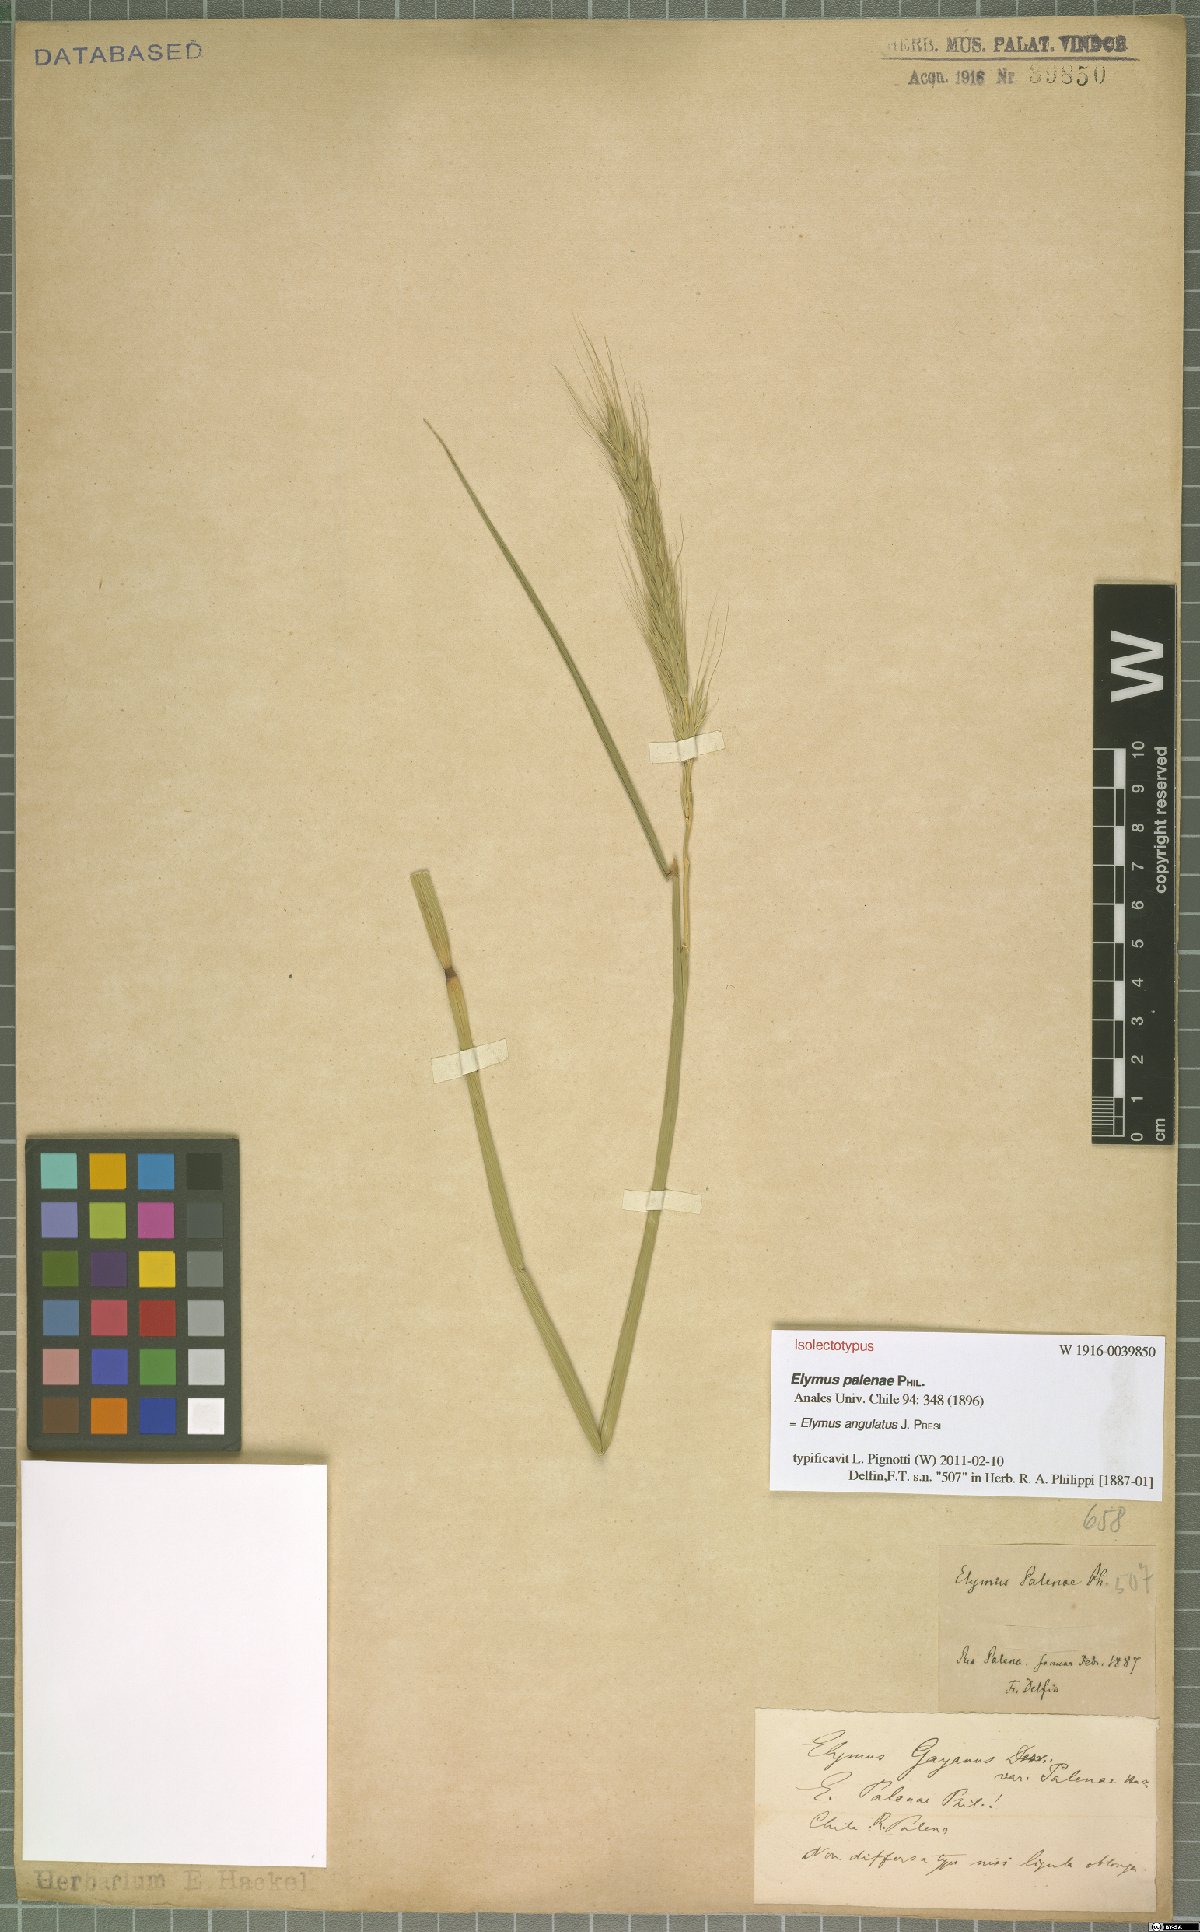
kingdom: Plantae
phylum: Tracheophyta
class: Liliopsida
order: Poales
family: Poaceae
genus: Elymus
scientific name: Elymus angulatus
